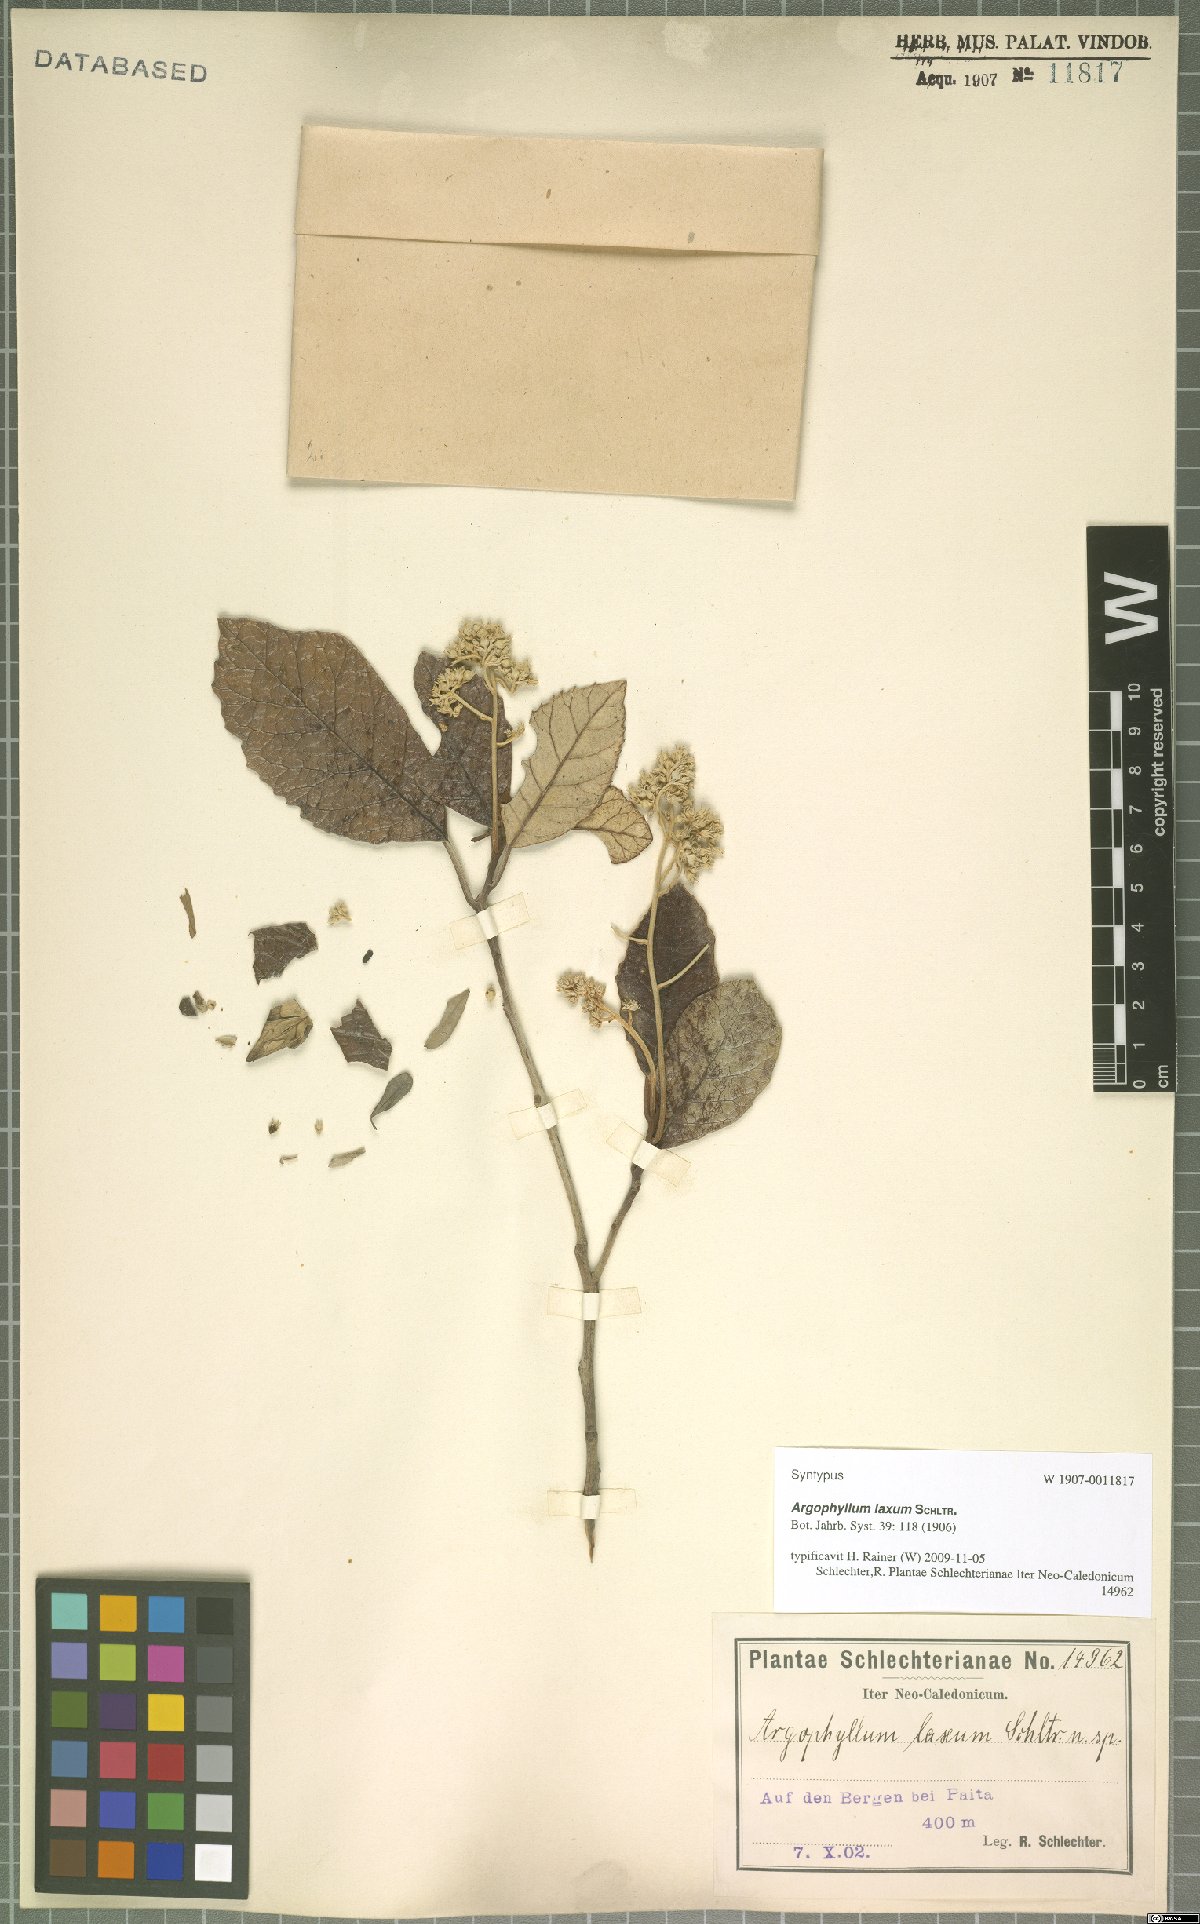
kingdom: Plantae
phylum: Tracheophyta
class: Magnoliopsida
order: Asterales
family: Argophyllaceae
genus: Argophyllum
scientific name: Argophyllum grunowii
